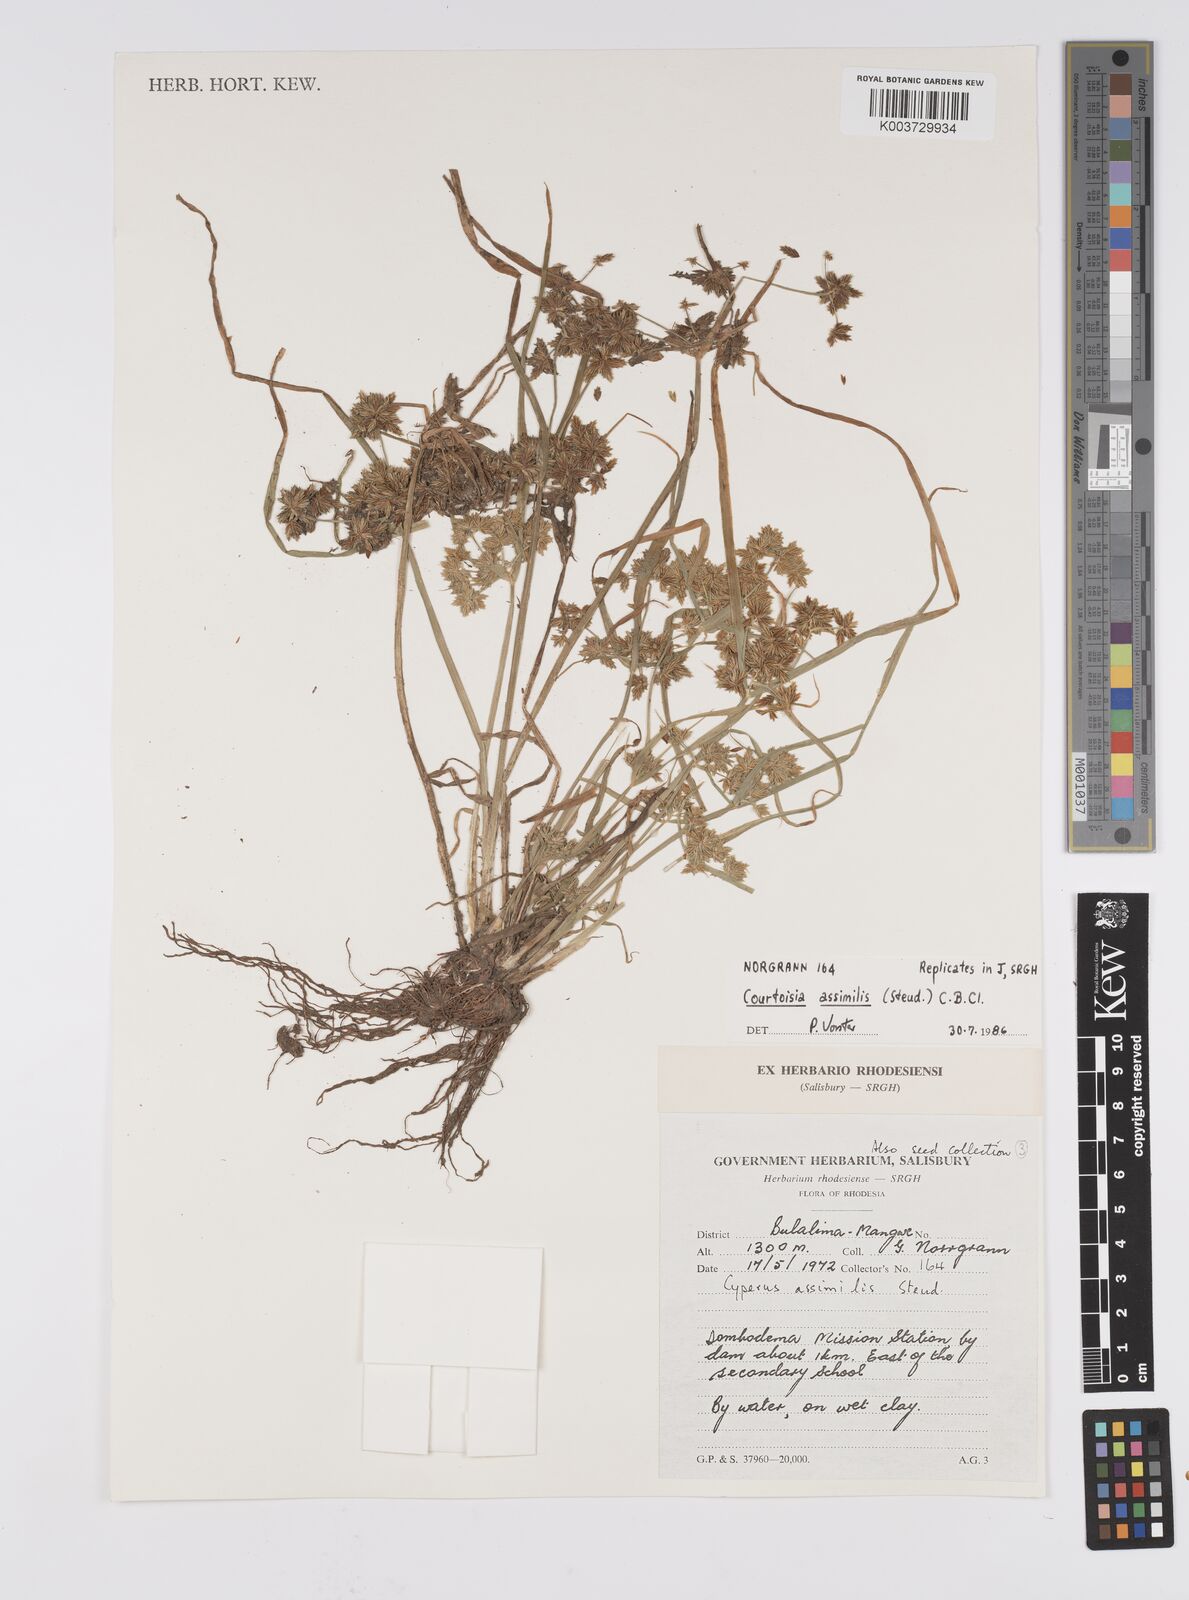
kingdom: Plantae
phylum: Tracheophyta
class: Liliopsida
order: Poales
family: Cyperaceae
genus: Cyperus
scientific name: Cyperus assimilis
